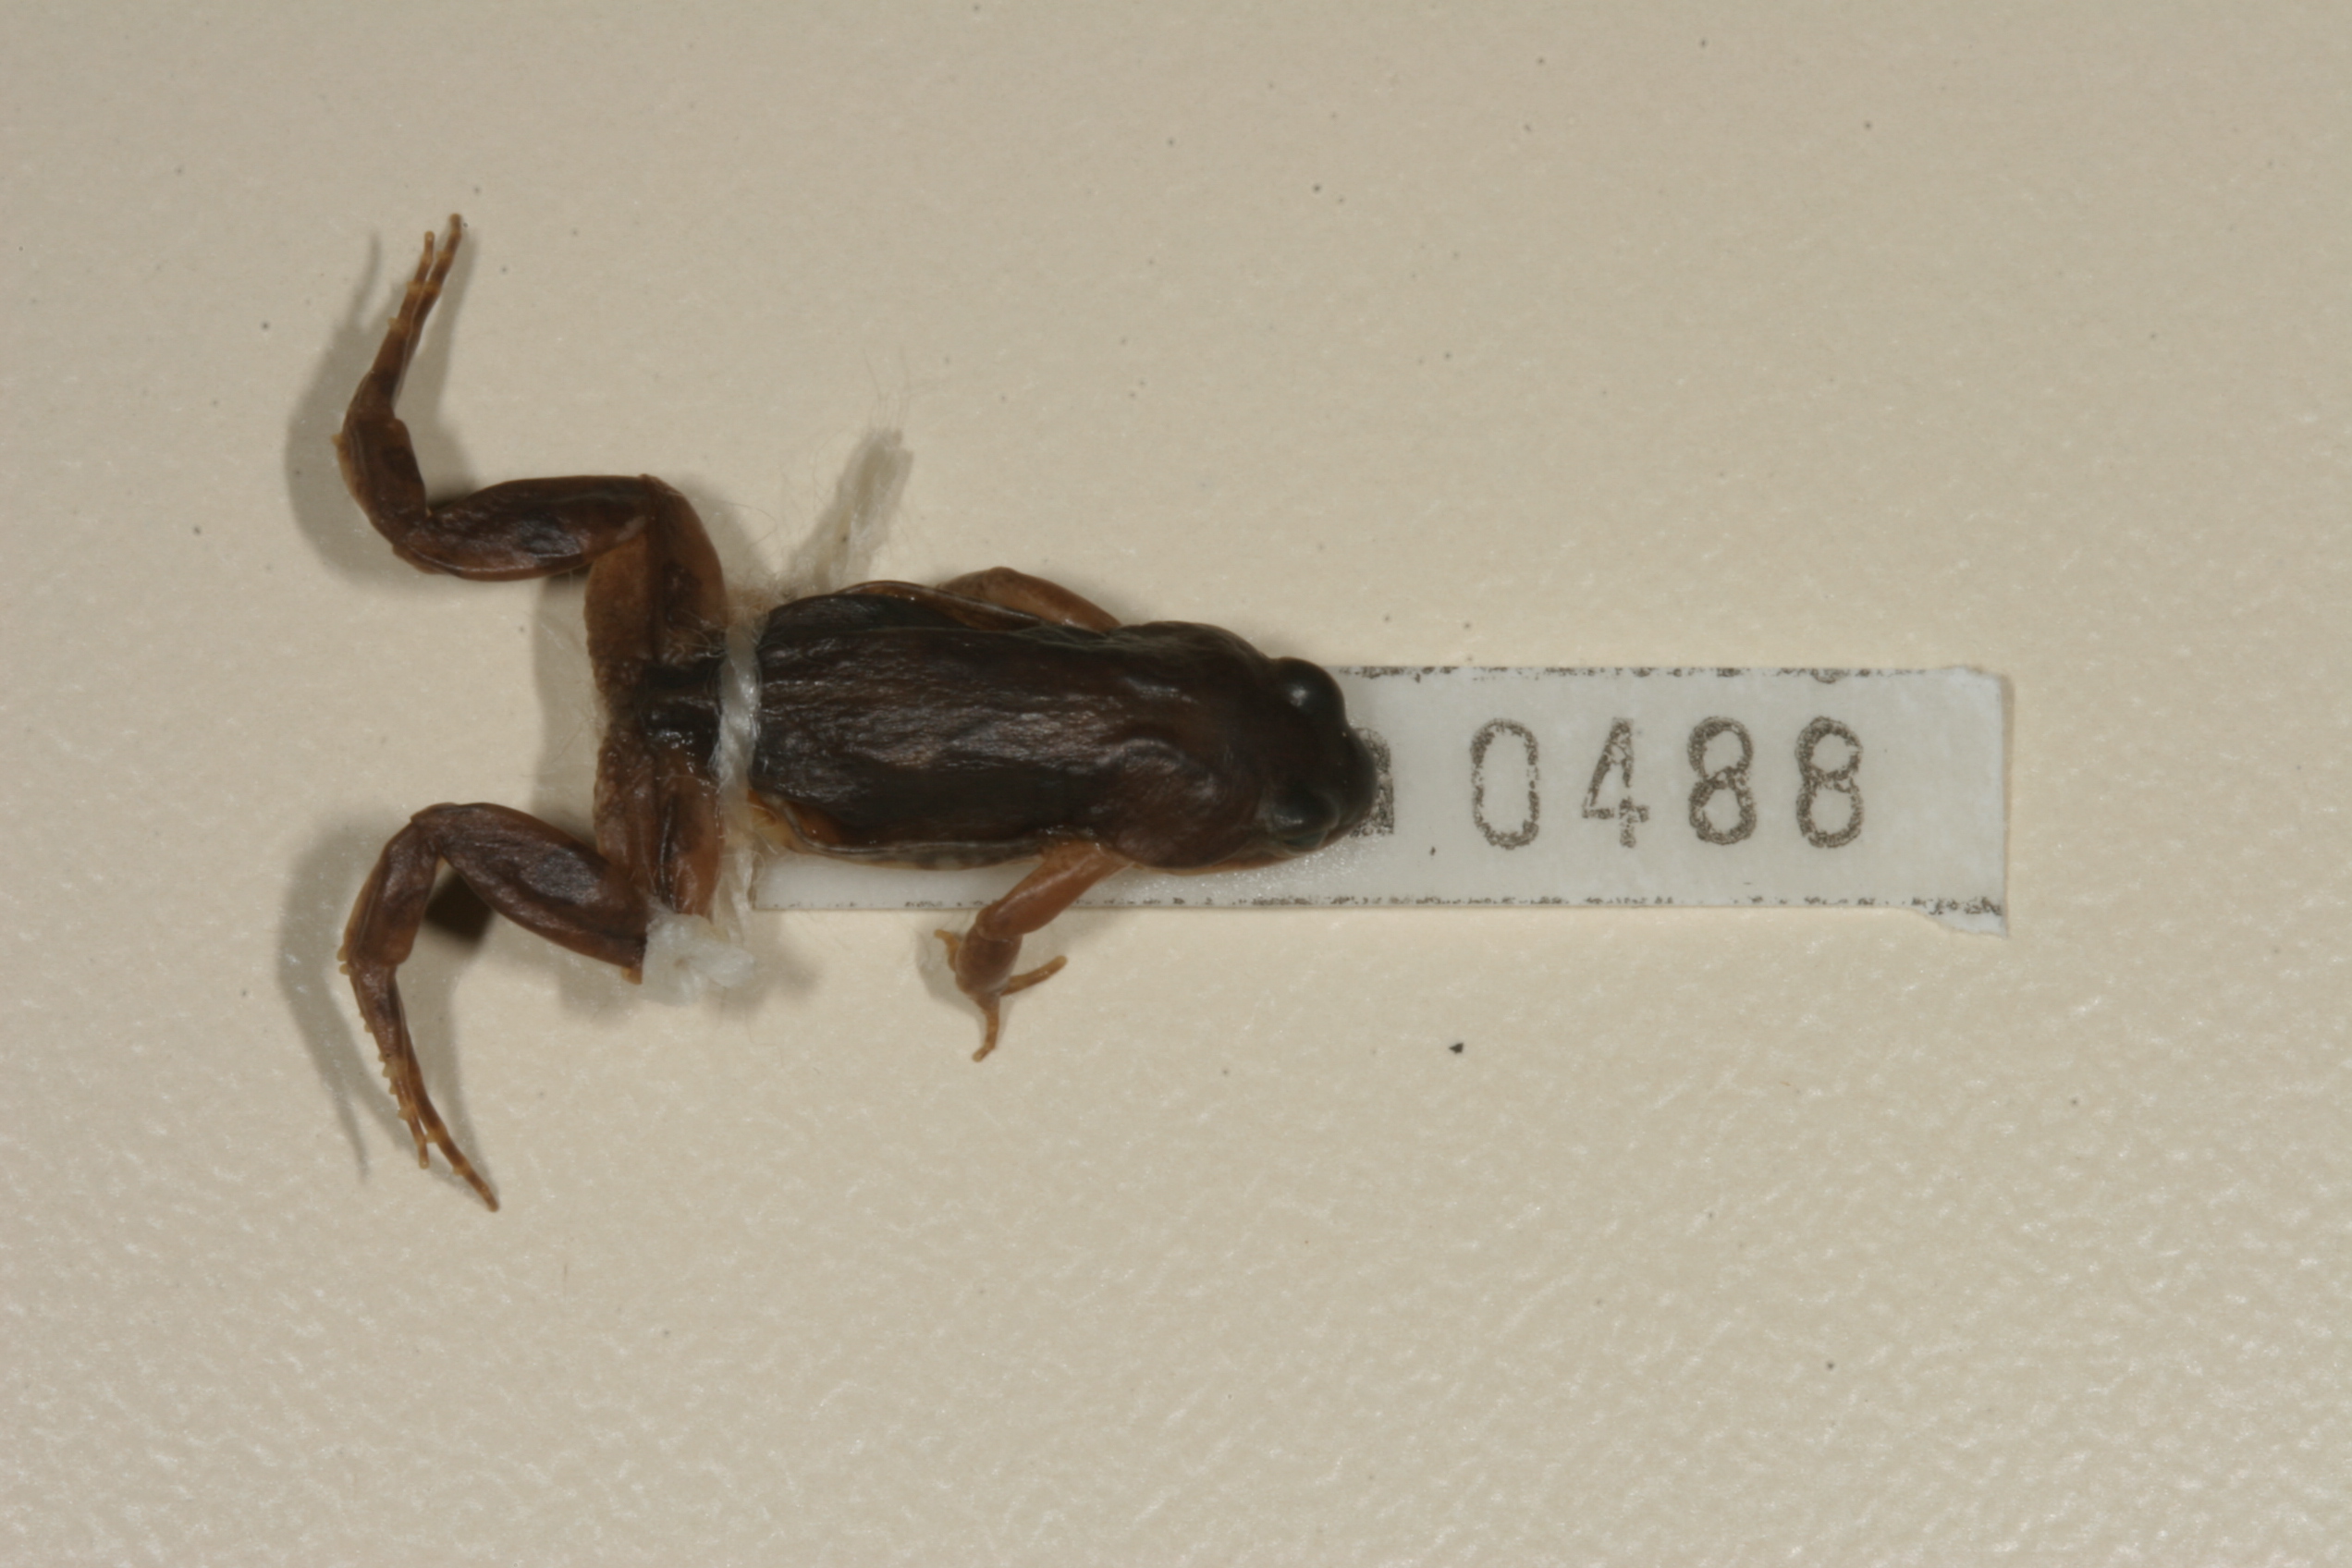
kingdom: Animalia
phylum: Chordata
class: Amphibia
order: Anura
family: Pyxicephalidae
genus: Cacosternum
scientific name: Cacosternum boettgeri
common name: Boettger's frog
